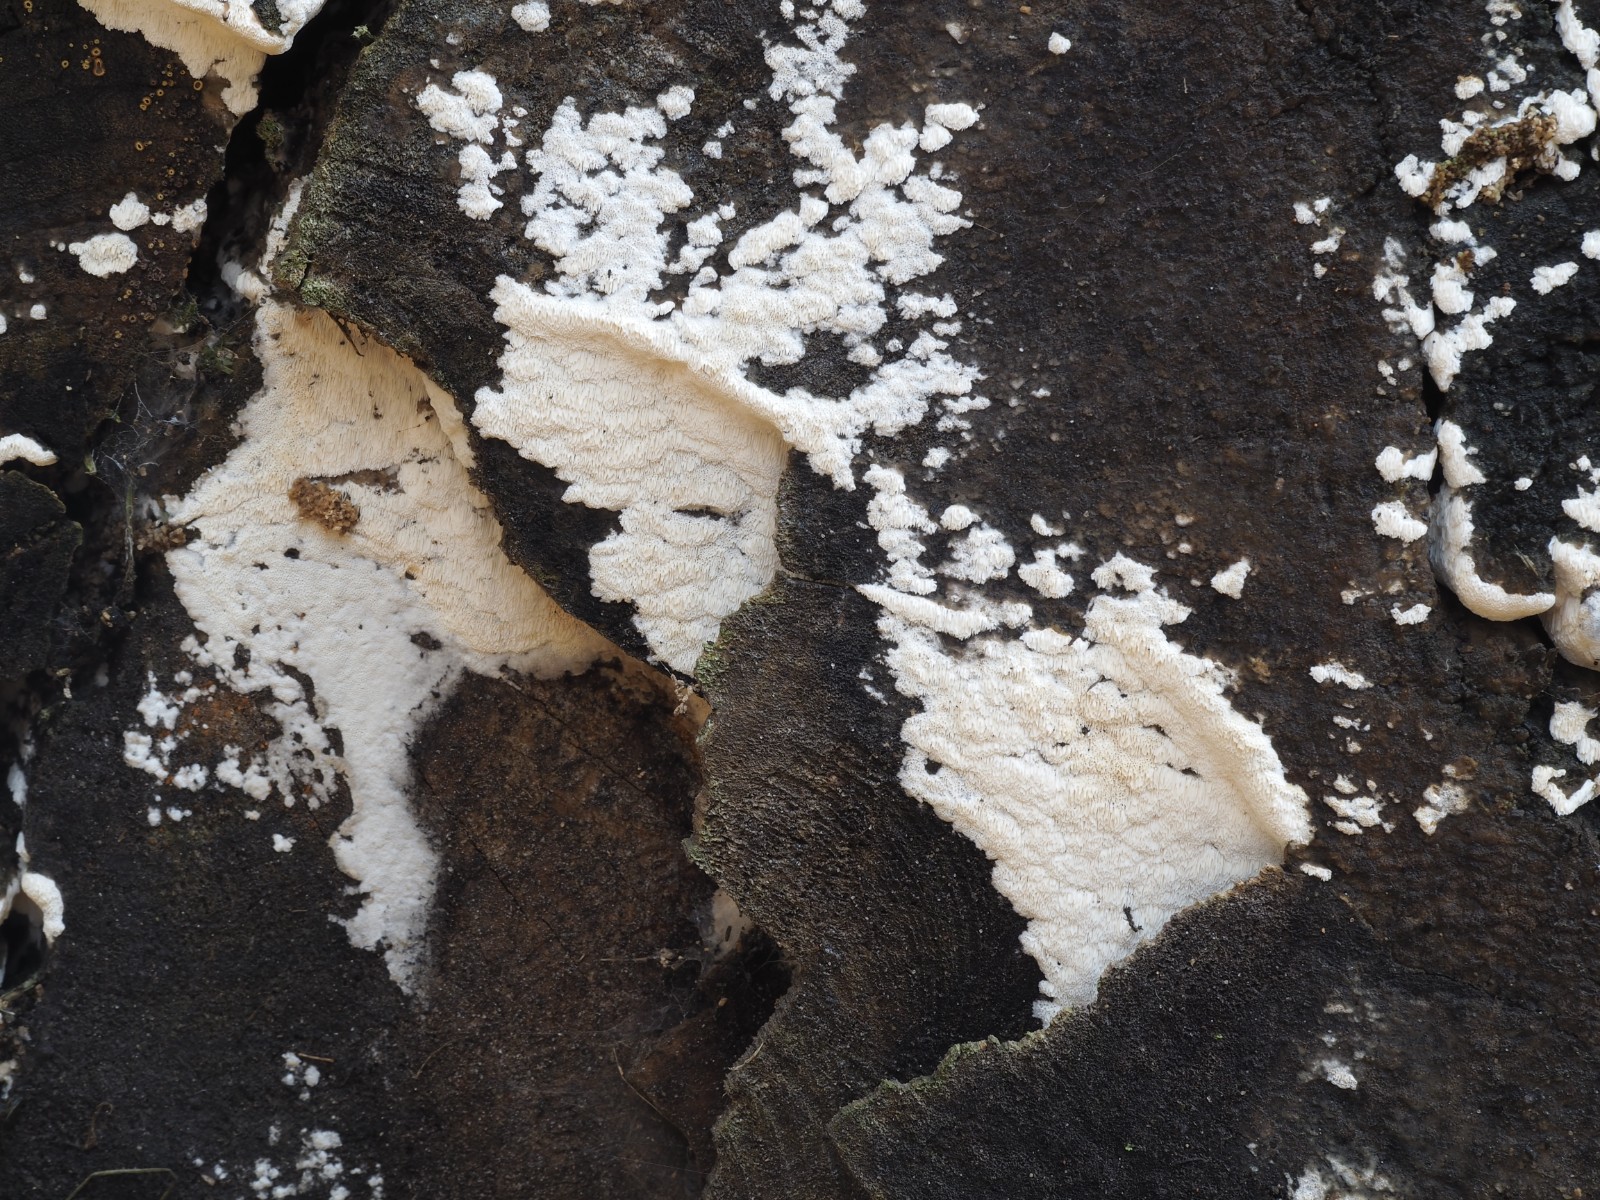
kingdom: Fungi
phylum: Basidiomycota
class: Agaricomycetes
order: Hymenochaetales
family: Oxyporaceae
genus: Oxyporus
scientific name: Oxyporus obducens
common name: skorpe-trylleporesvamp
